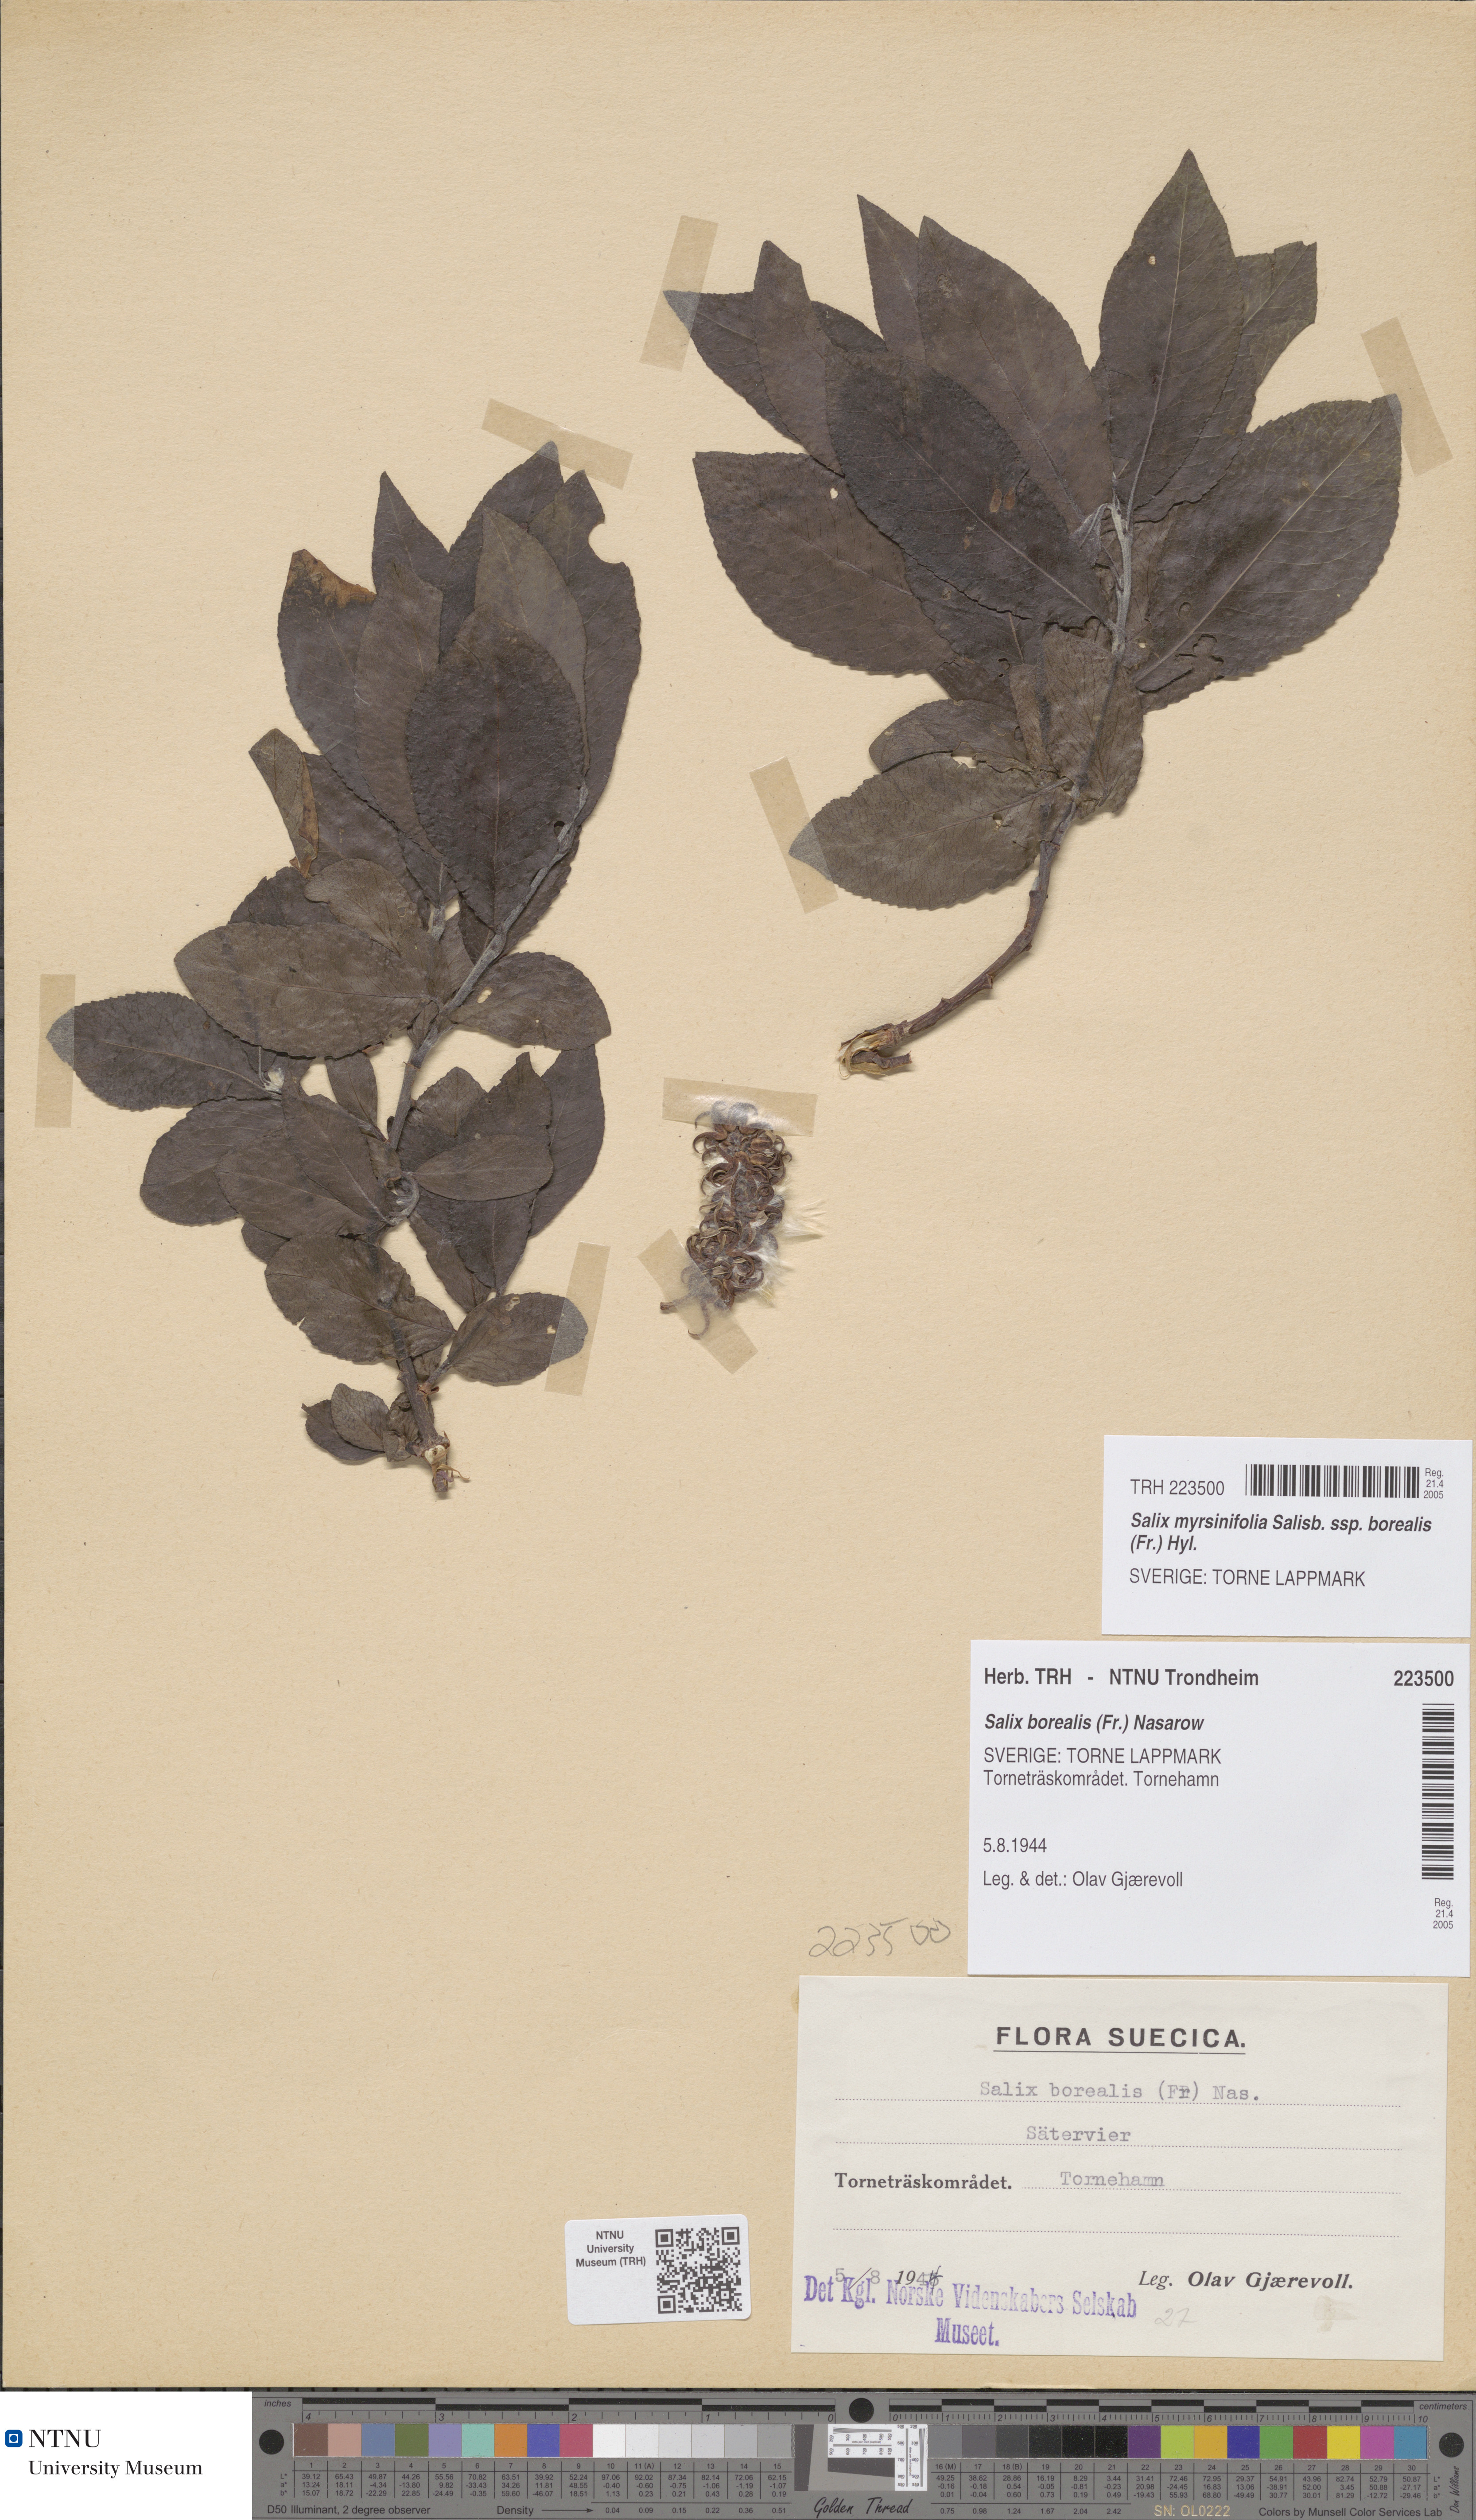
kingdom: Plantae
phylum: Tracheophyta
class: Magnoliopsida
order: Malpighiales
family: Salicaceae
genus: Salix
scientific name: Salix myrsinifolia
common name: Dark-leaved willow
